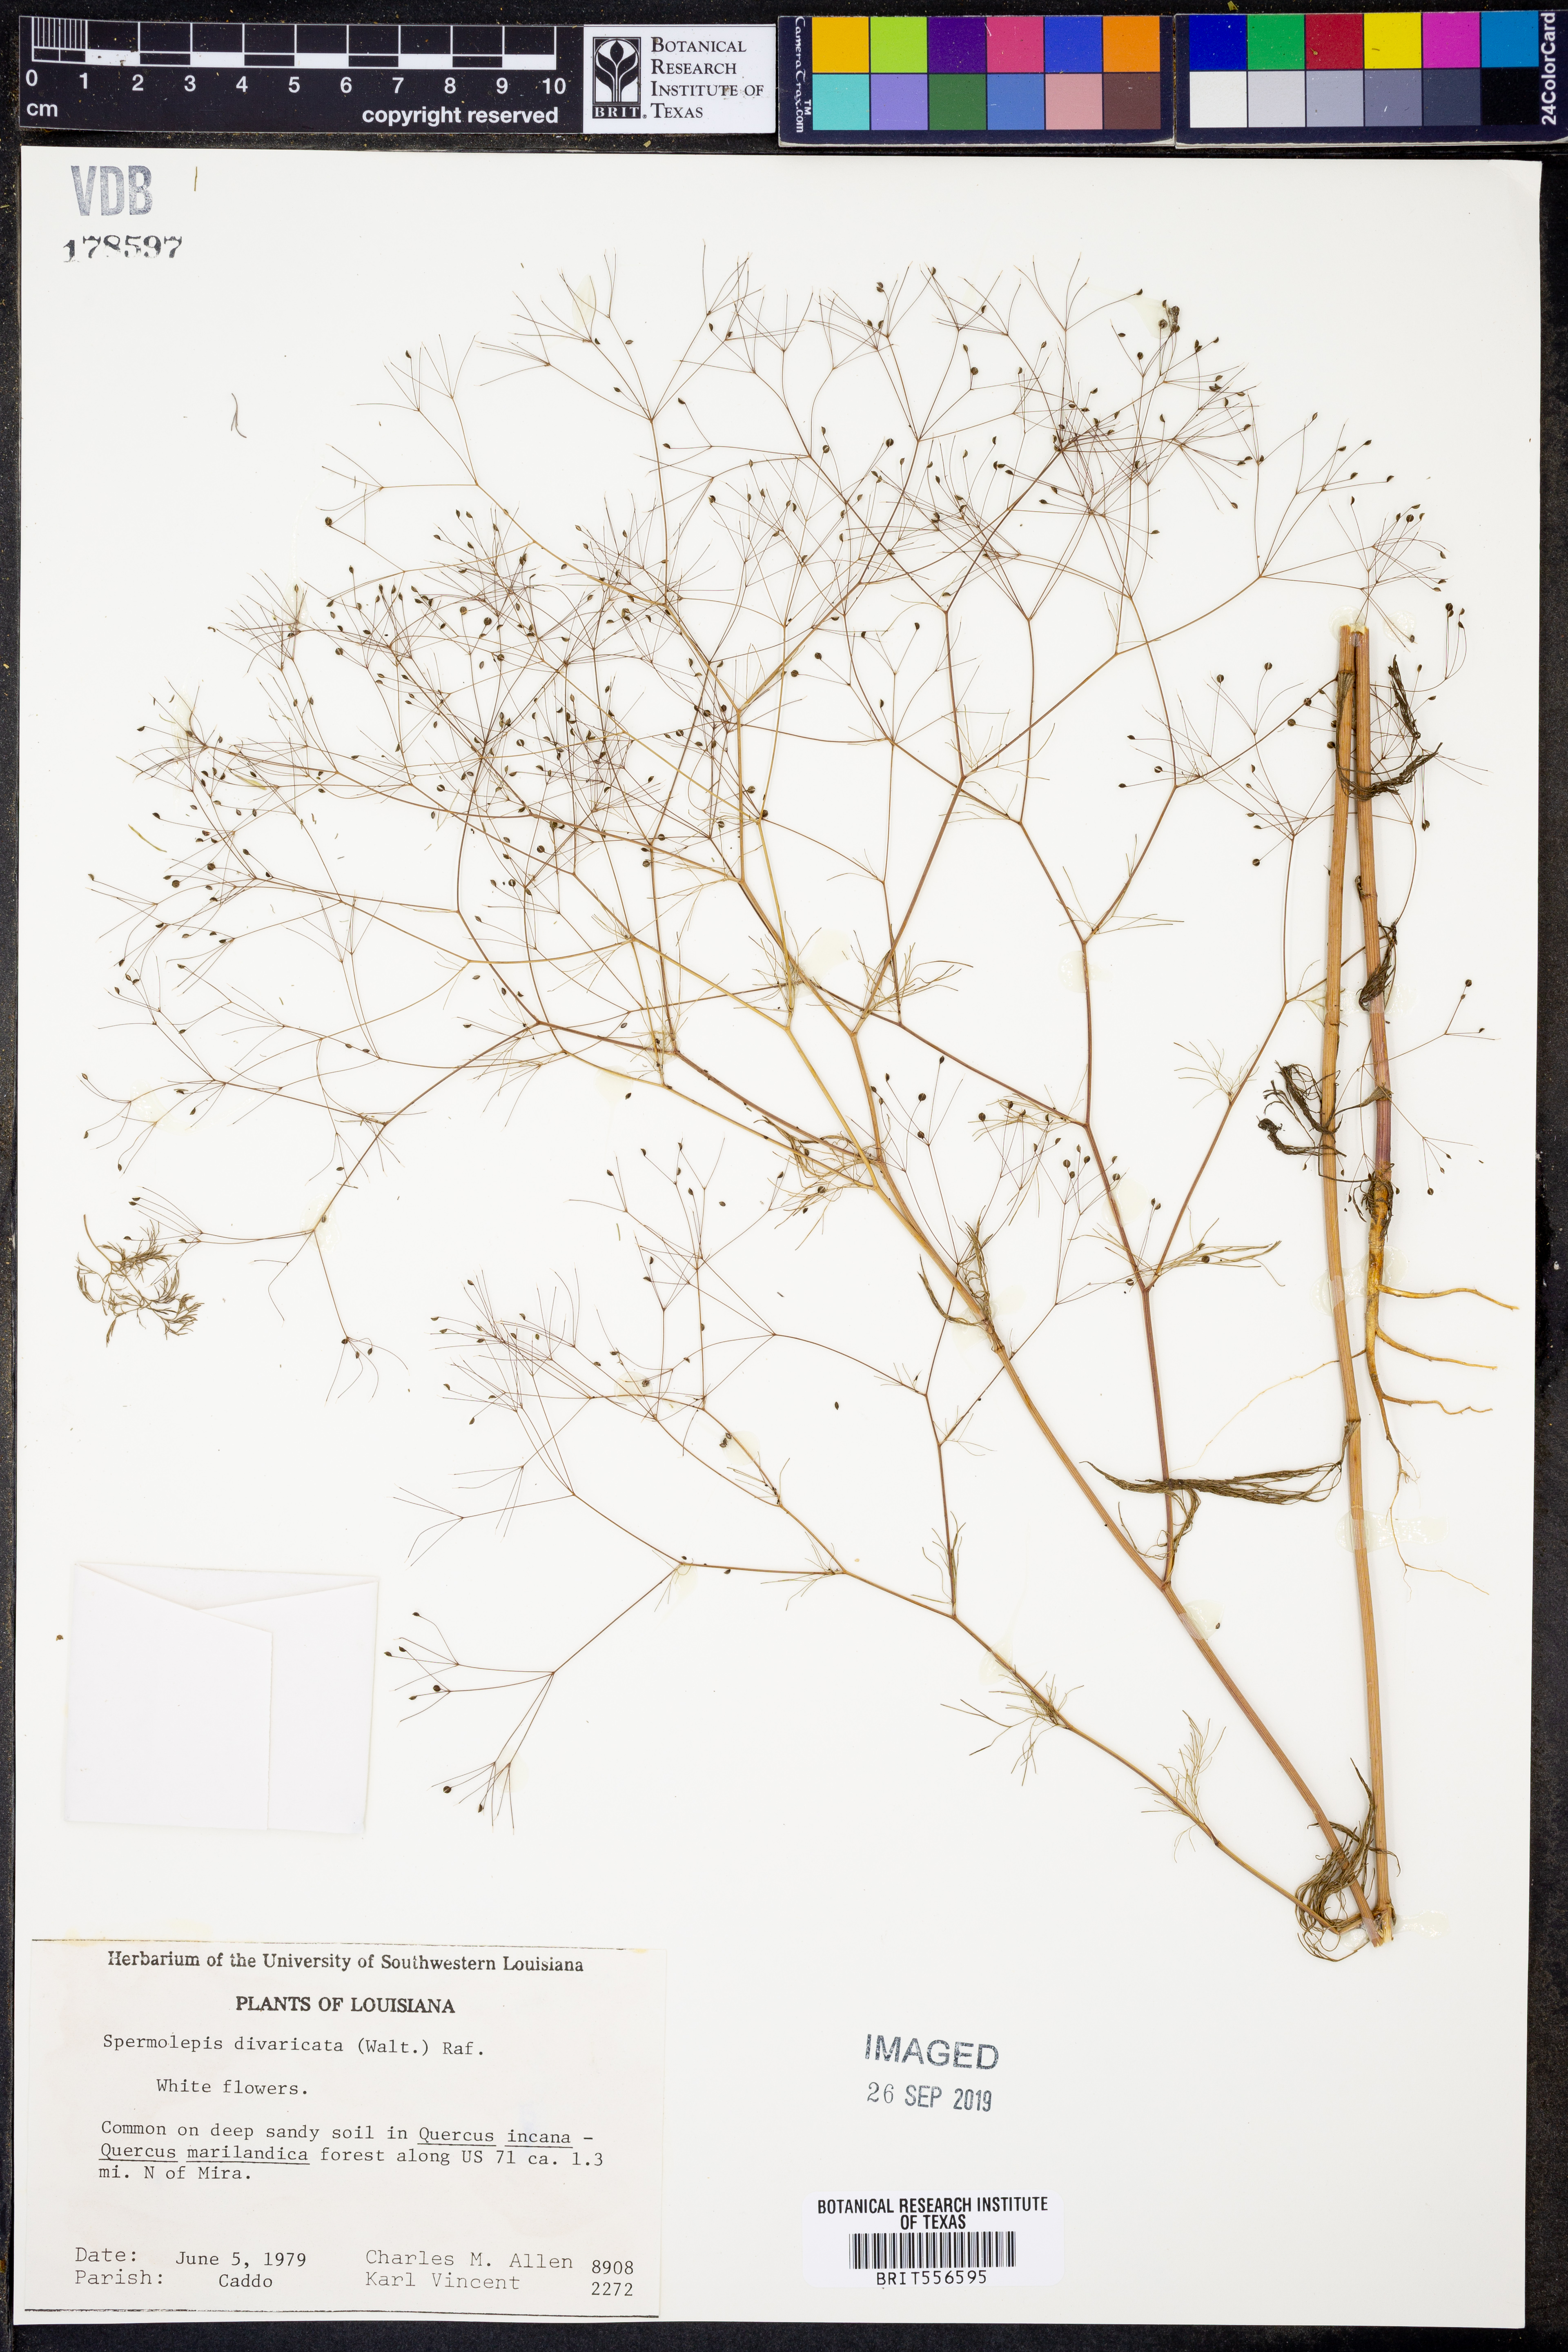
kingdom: Plantae
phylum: Tracheophyta
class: Magnoliopsida
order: Apiales
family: Apiaceae
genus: Spermolepis
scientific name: Spermolepis divaricata
